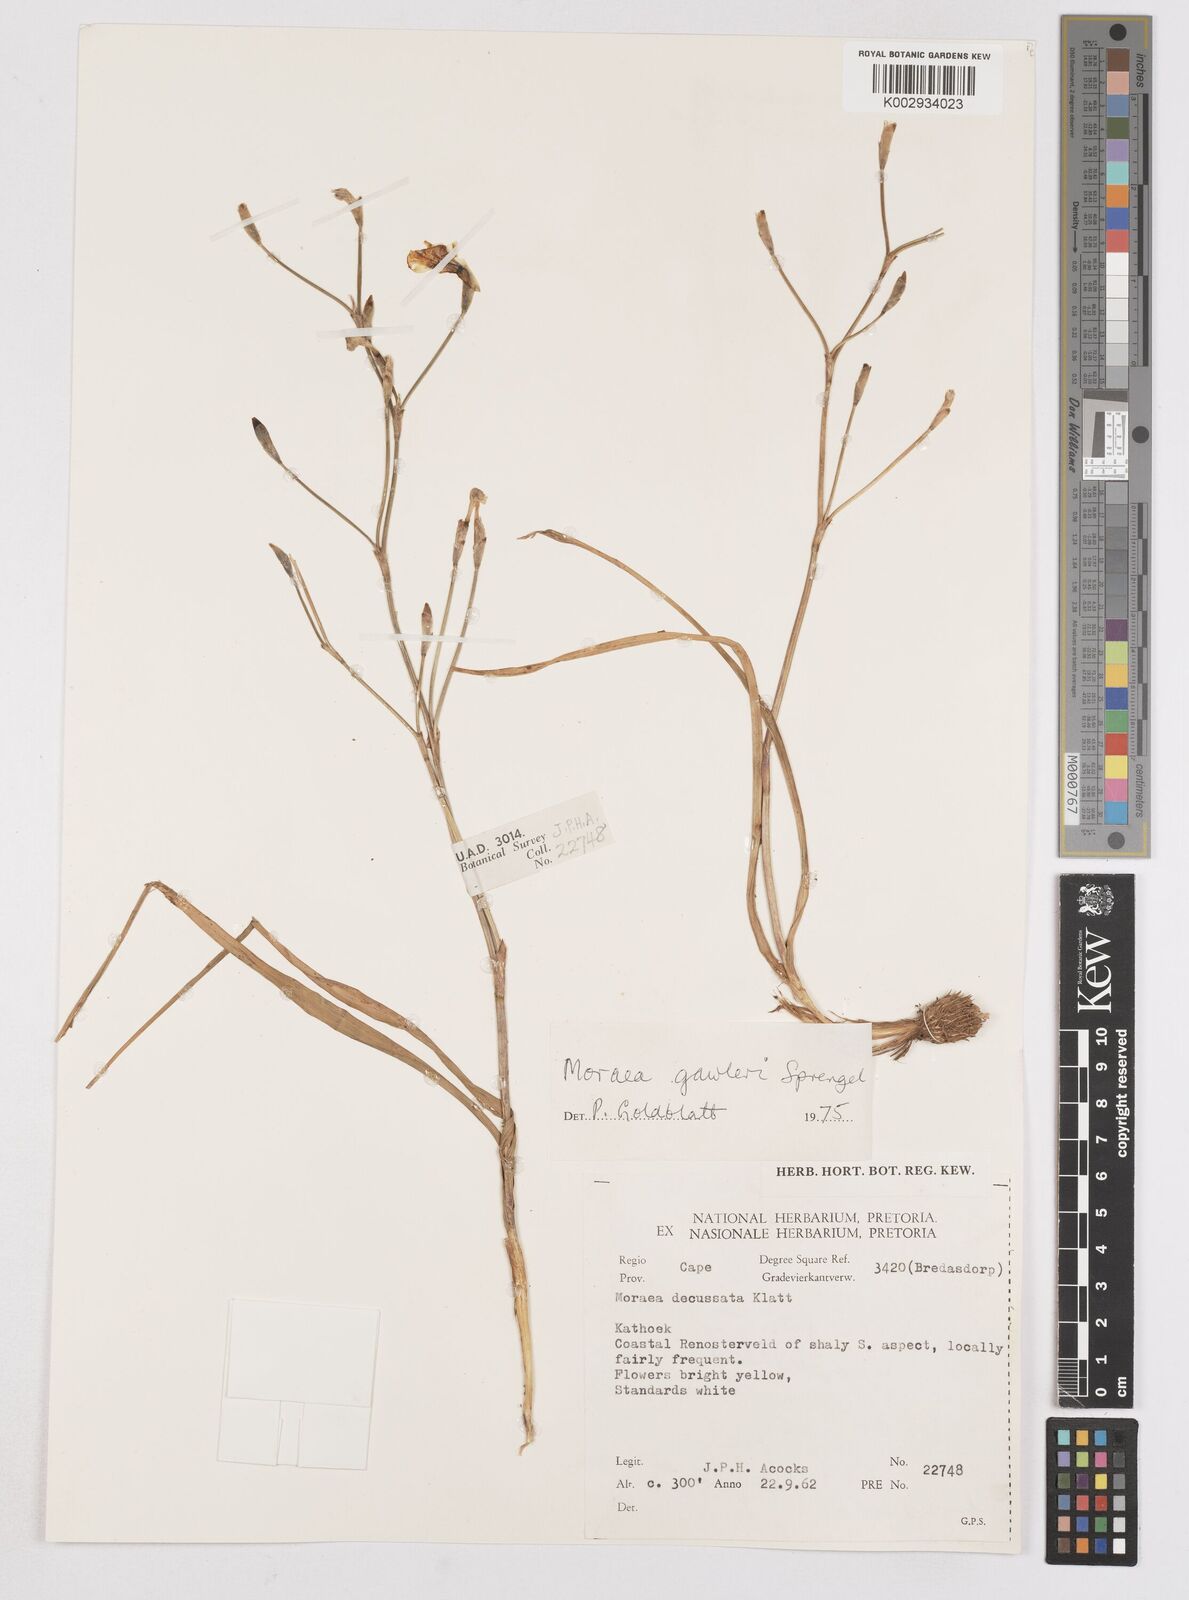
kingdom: Plantae
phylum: Tracheophyta
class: Liliopsida
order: Asparagales
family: Iridaceae
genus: Moraea
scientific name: Moraea gawleri
